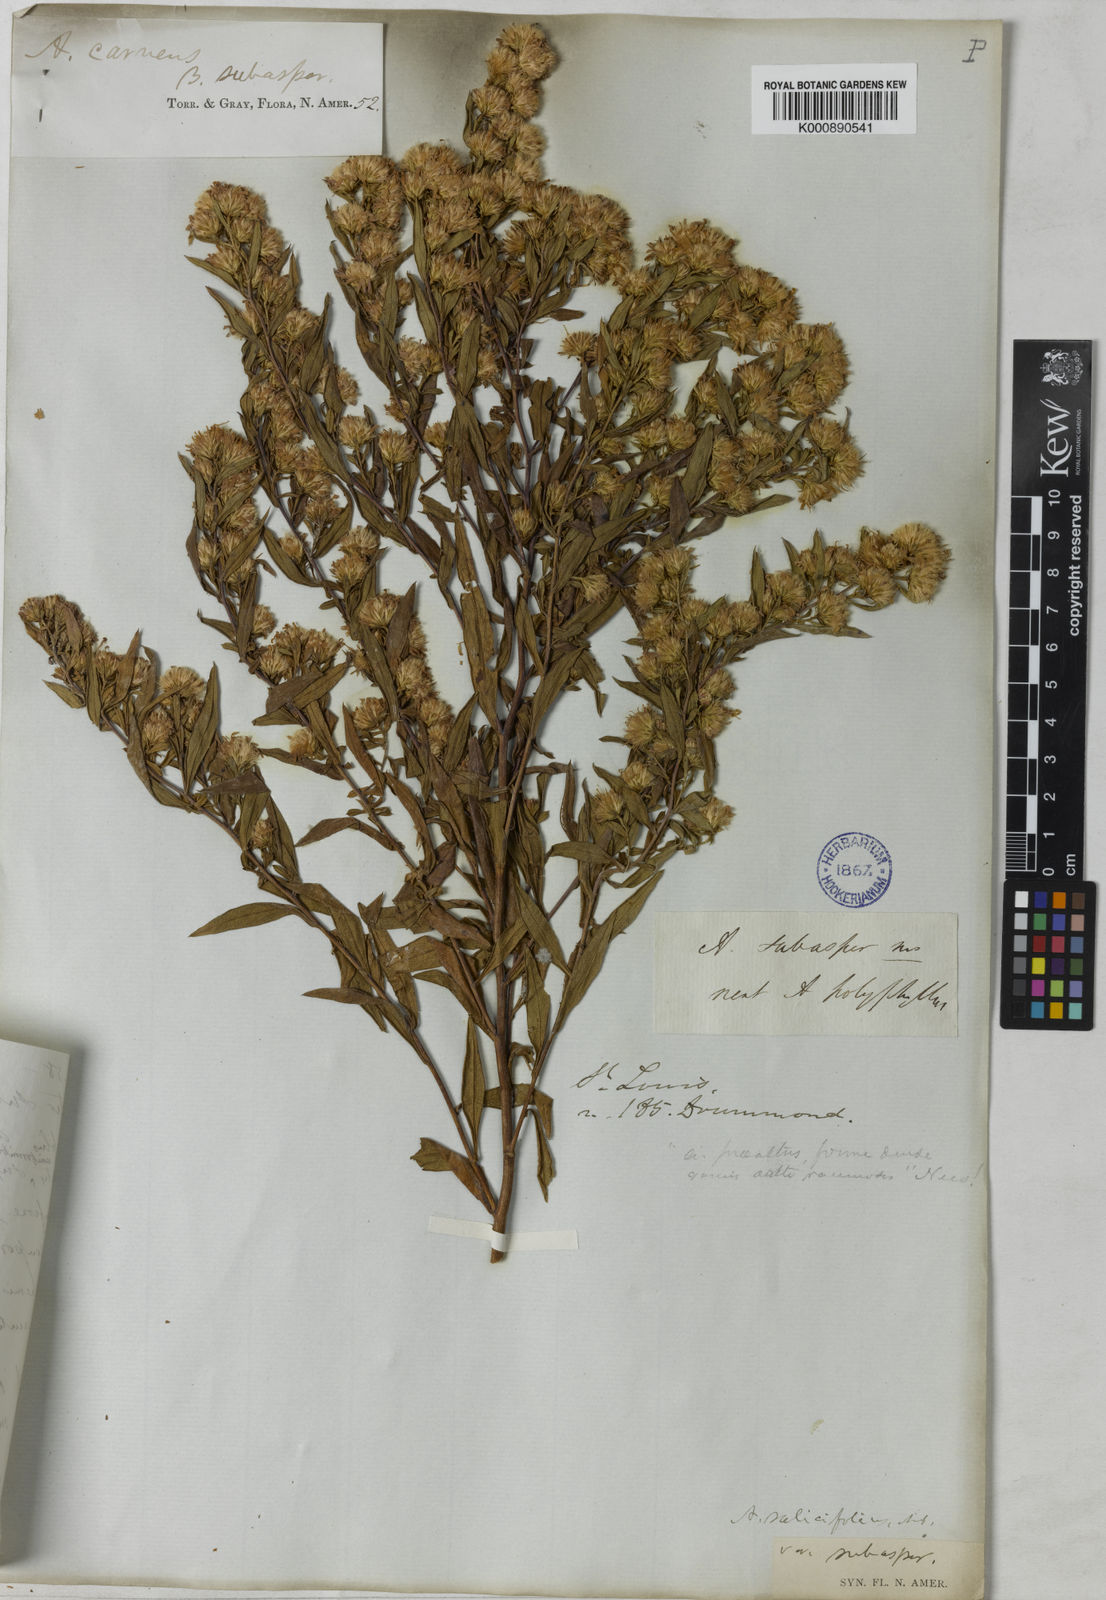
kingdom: Plantae
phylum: Tracheophyta
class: Magnoliopsida
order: Asterales
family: Asteraceae
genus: Symphyotrichum
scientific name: Symphyotrichum praealtum
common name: Willow aster
